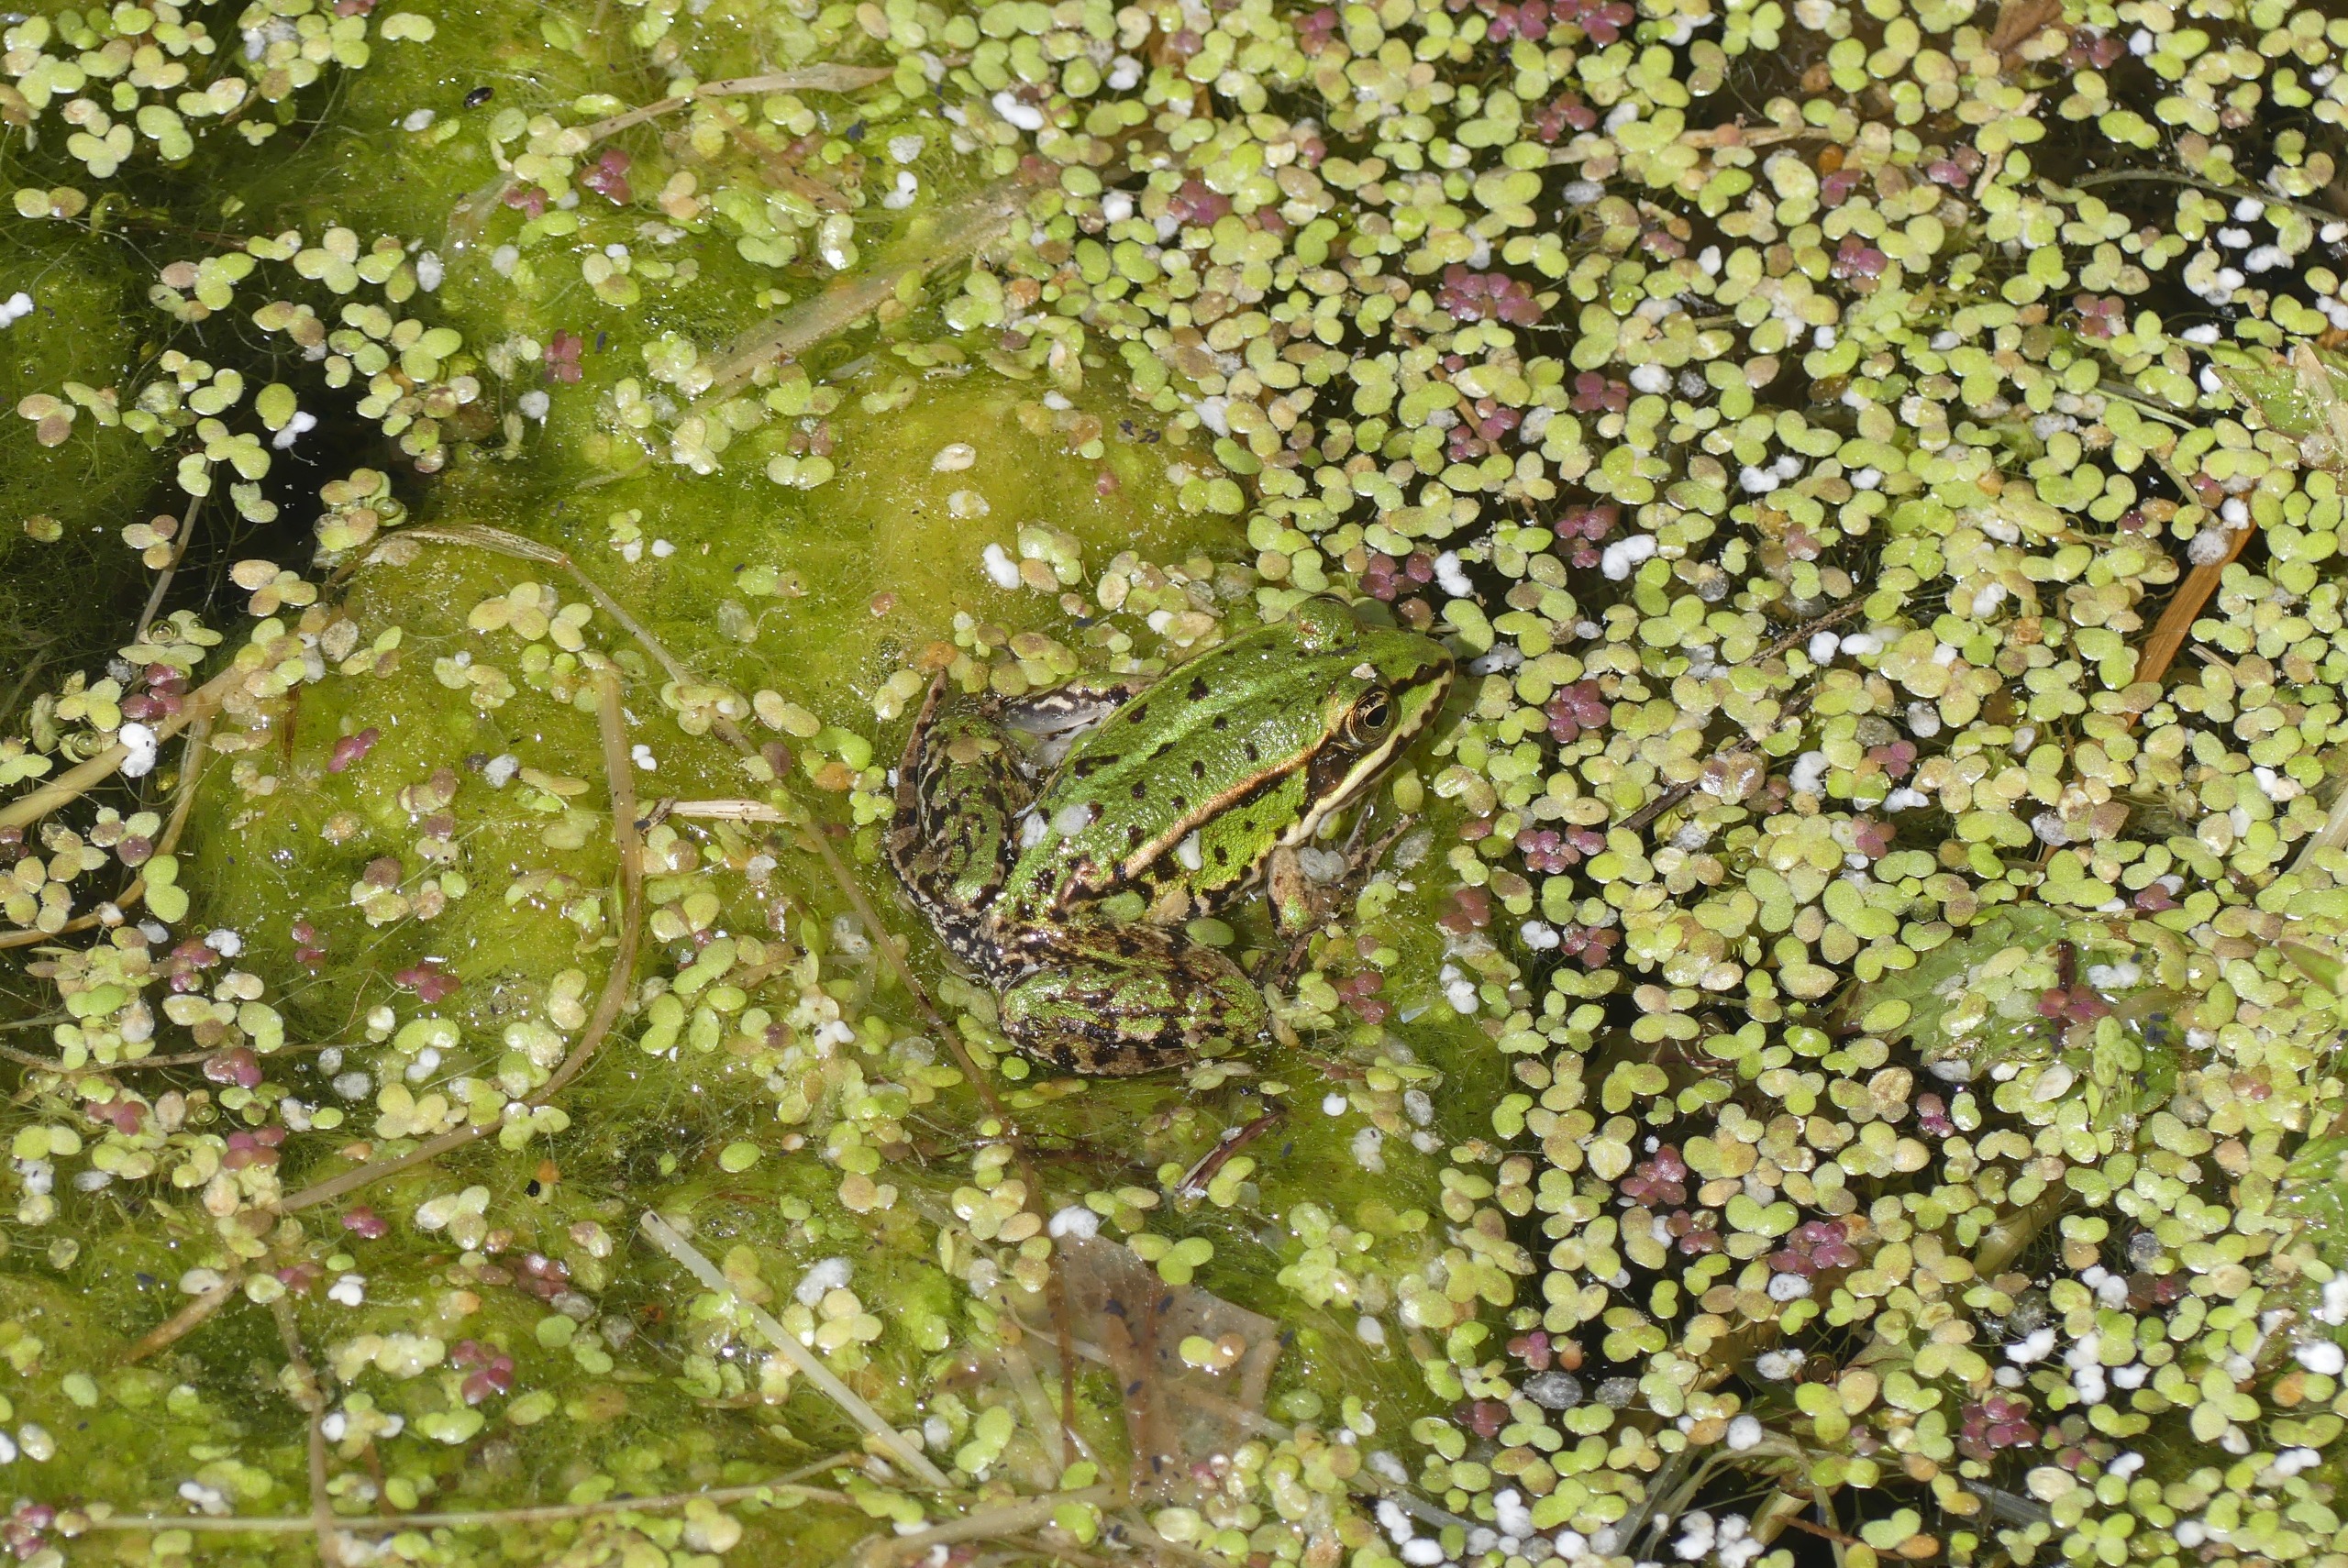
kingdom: Animalia
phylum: Chordata
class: Amphibia
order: Anura
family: Ranidae
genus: Pelophylax
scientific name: Pelophylax lessonae
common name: Grøn frø
